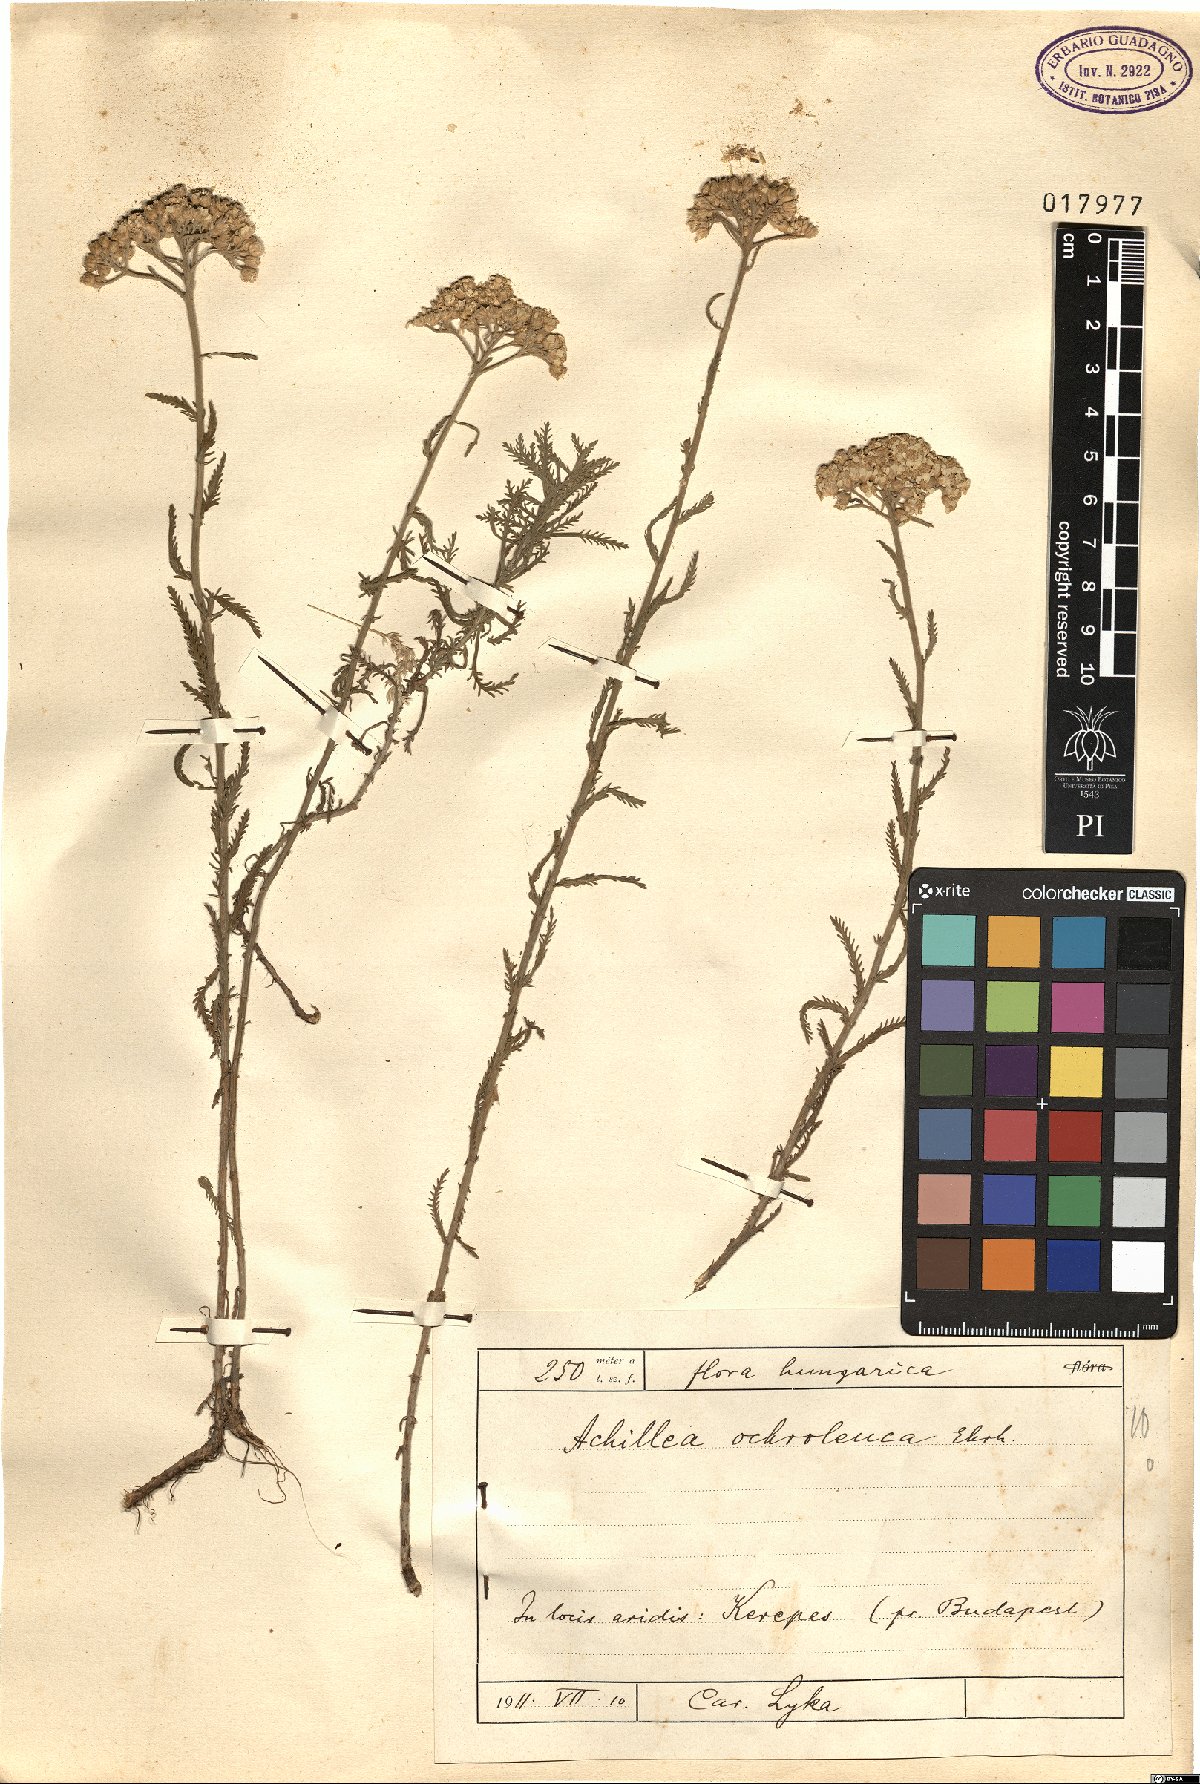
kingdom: Plantae
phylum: Tracheophyta
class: Magnoliopsida
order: Asterales
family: Asteraceae
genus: Achillea
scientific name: Achillea ochroleuca
